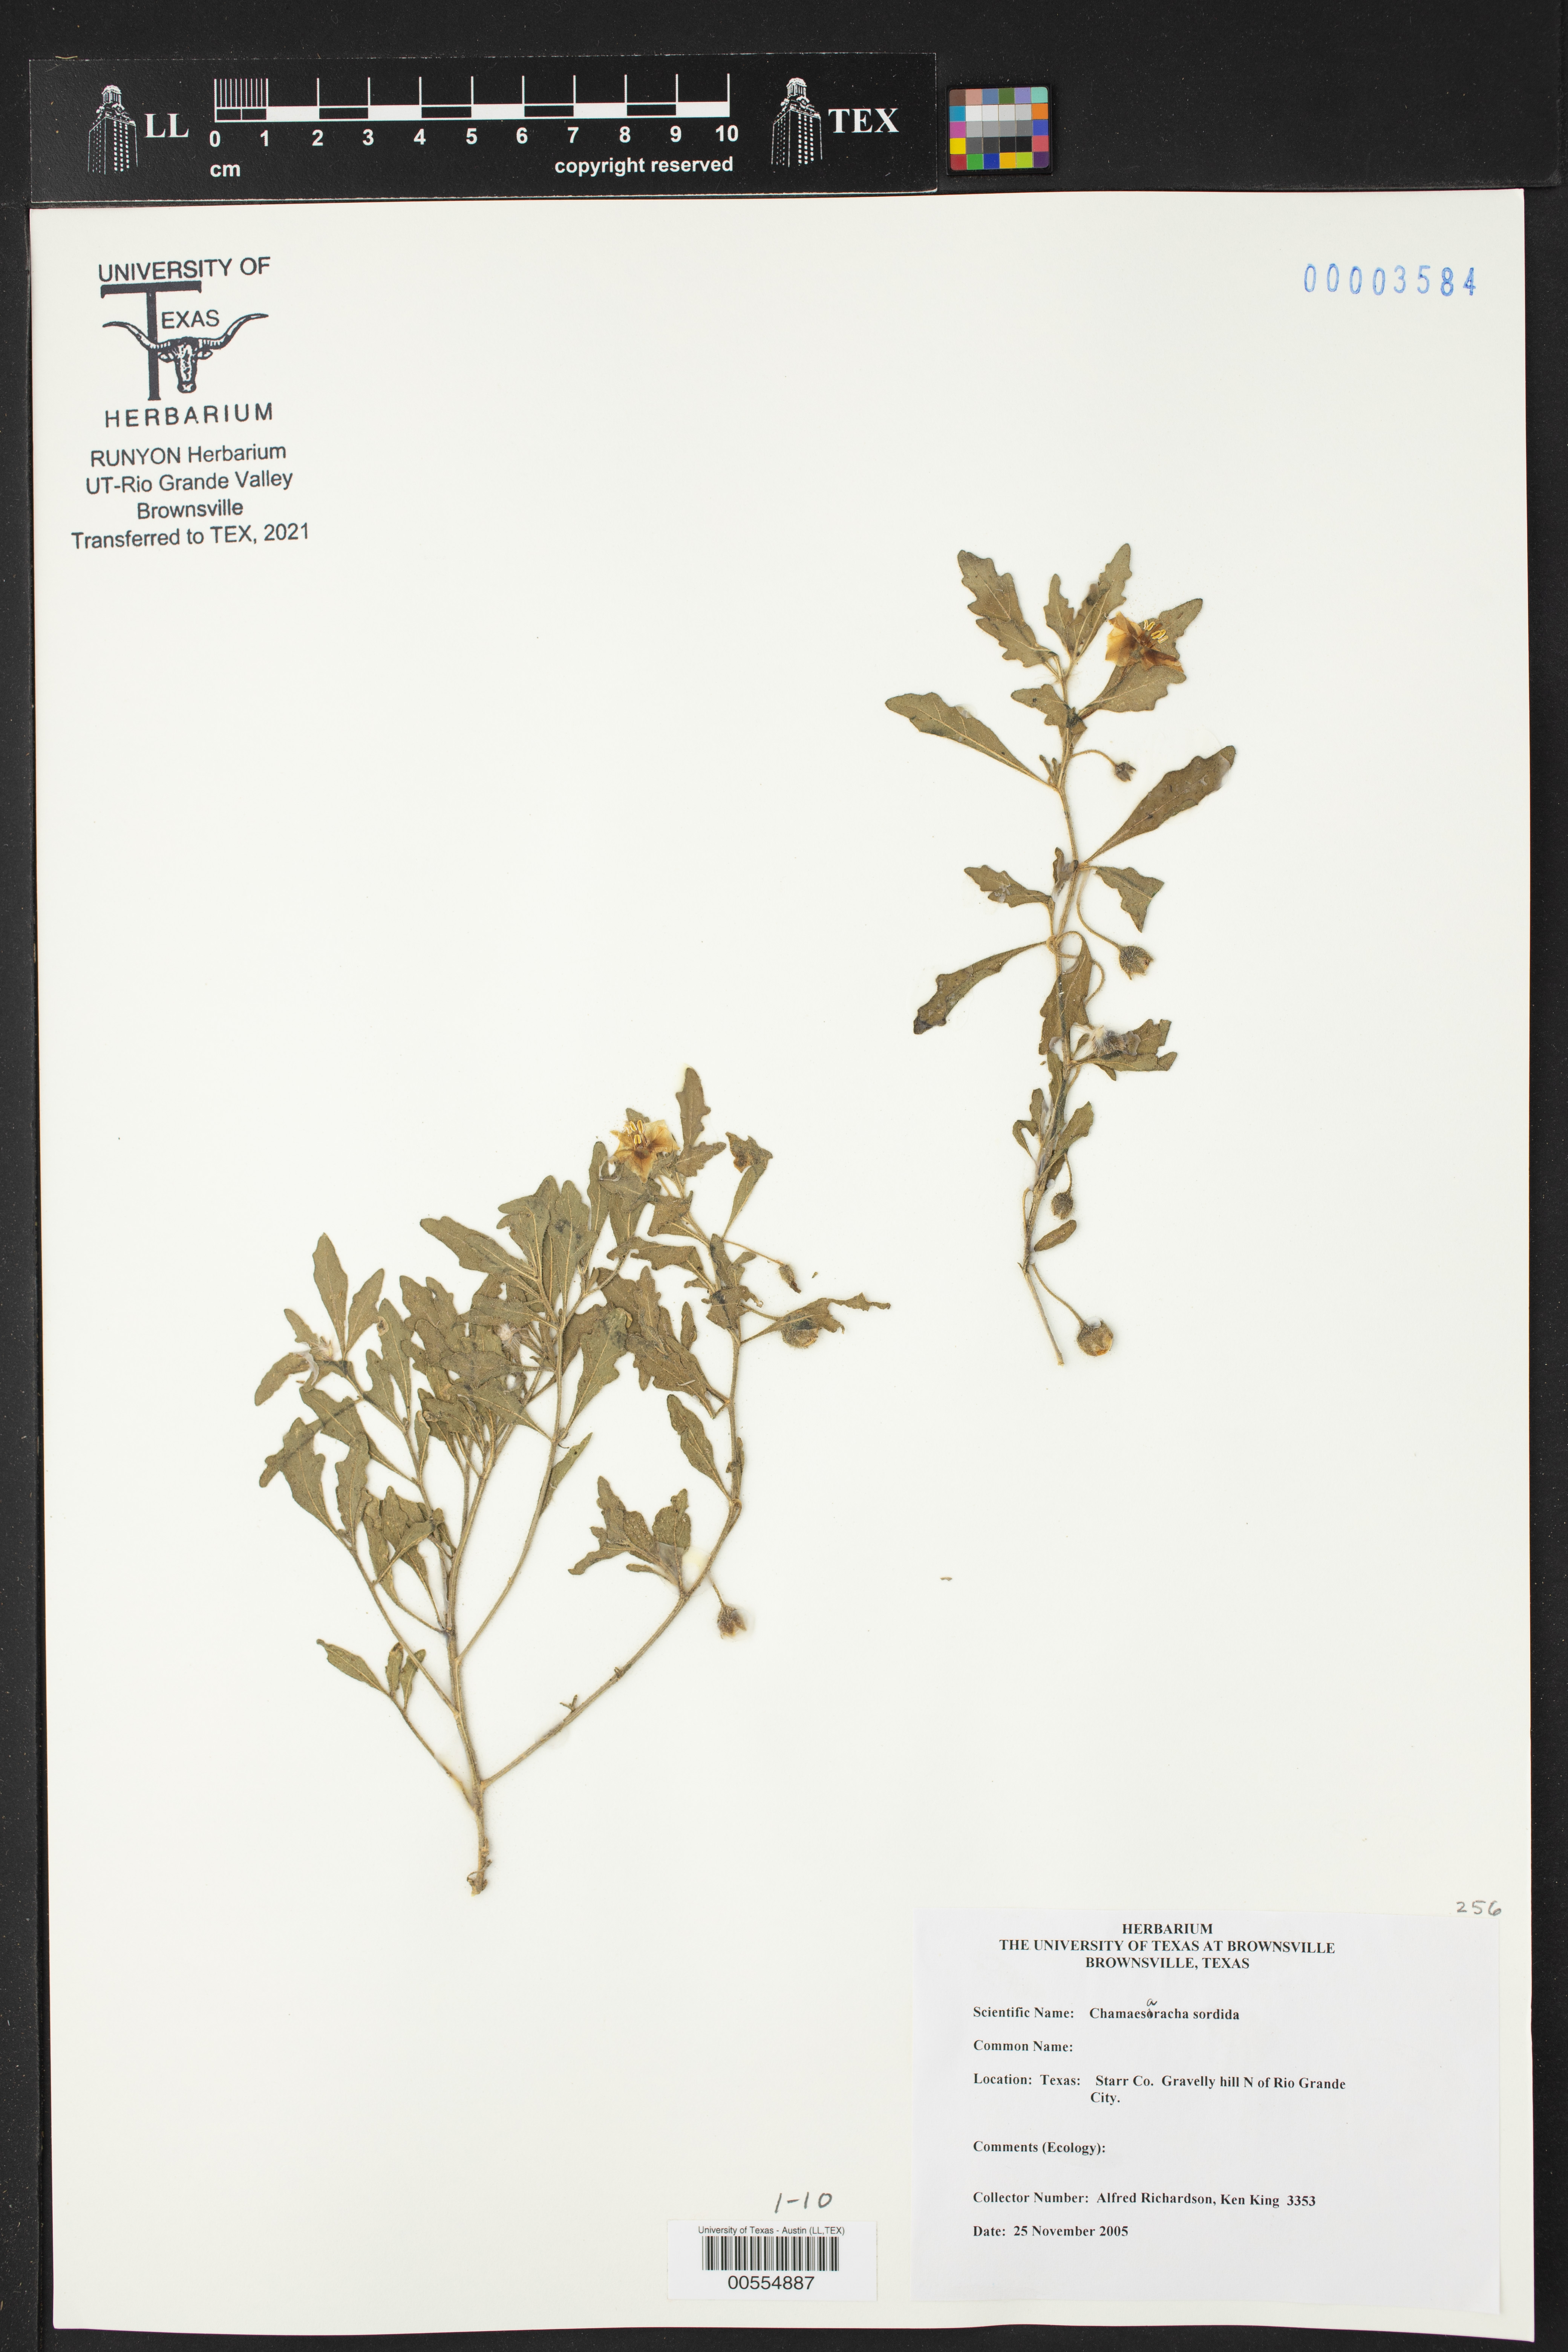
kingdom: Plantae
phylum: Tracheophyta
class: Magnoliopsida
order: Solanales
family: Solanaceae
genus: Chamaesaracha
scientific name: Chamaesaracha sordida
